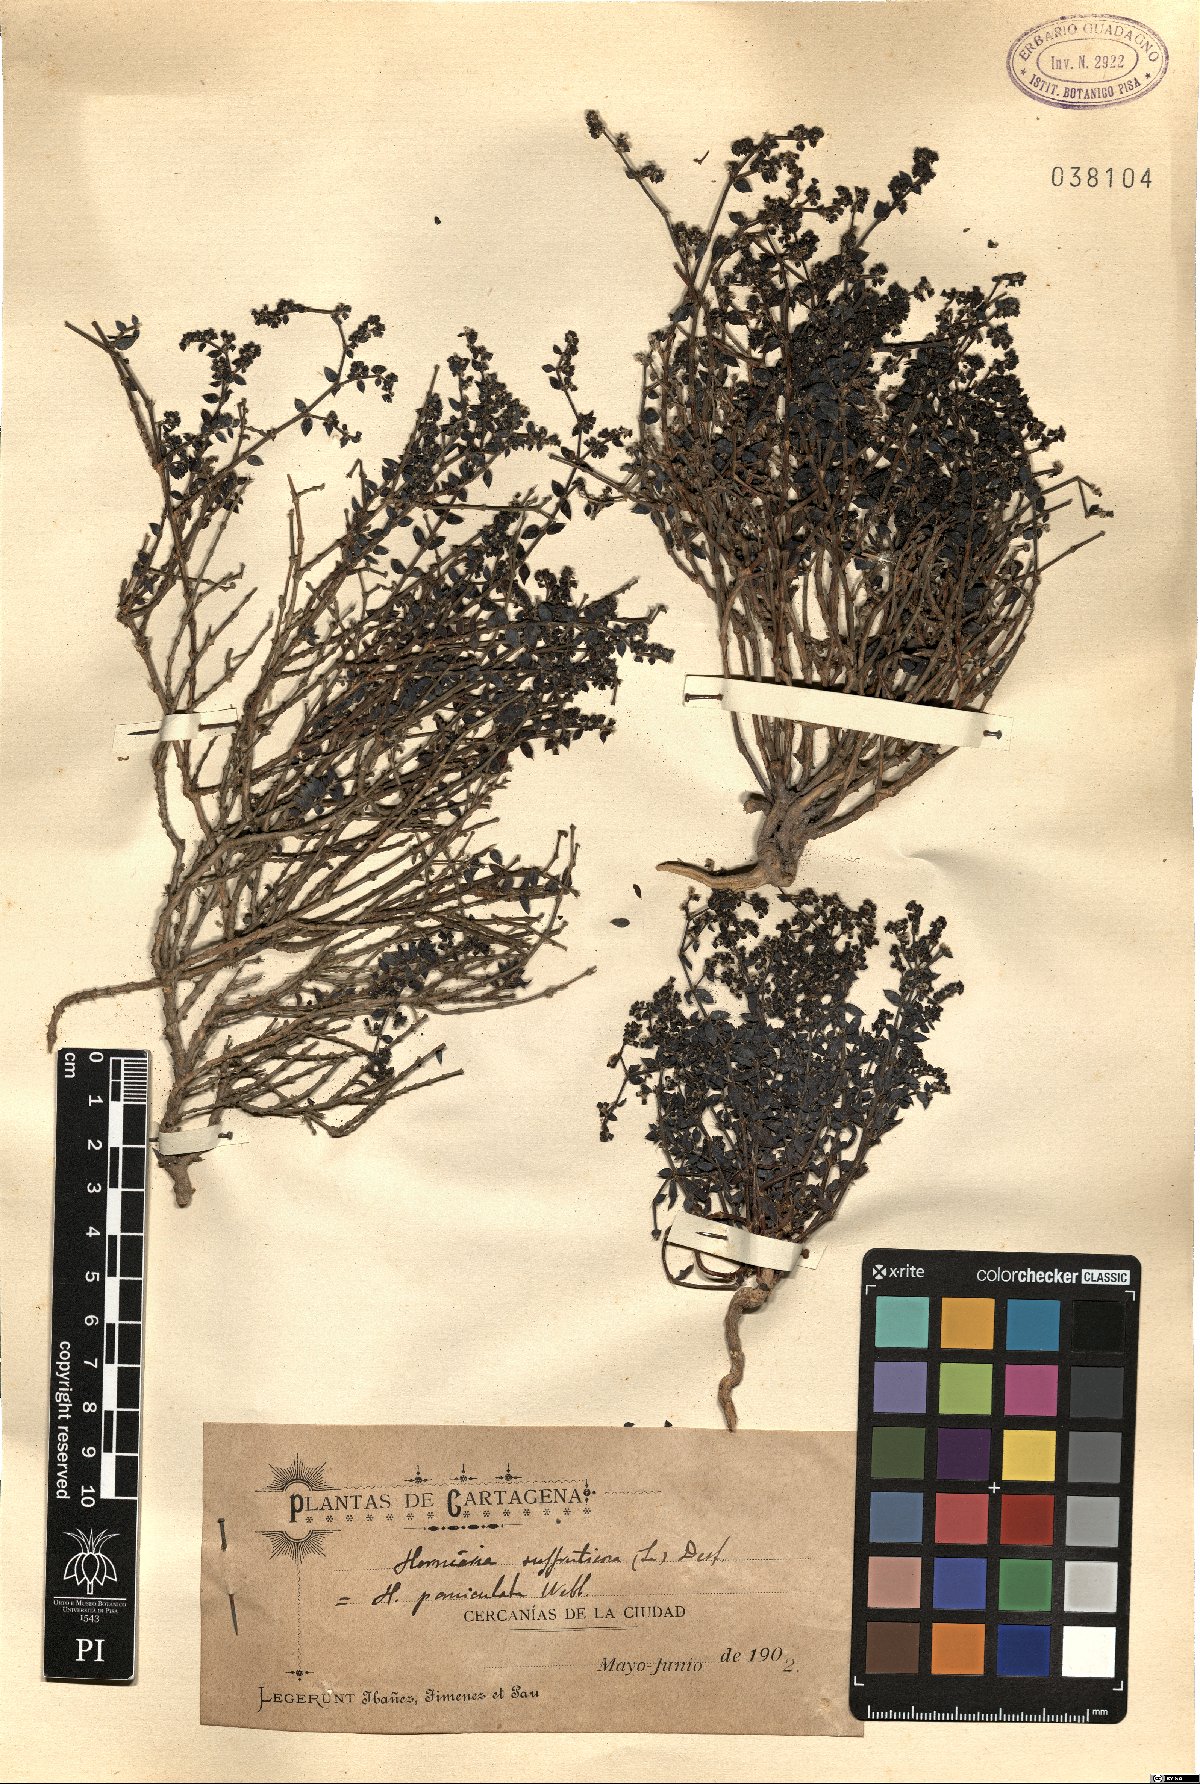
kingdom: Plantae
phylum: Tracheophyta
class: Magnoliopsida
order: Caryophyllales
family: Caryophyllaceae
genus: Paronychia
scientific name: Paronychia suffruticosa
